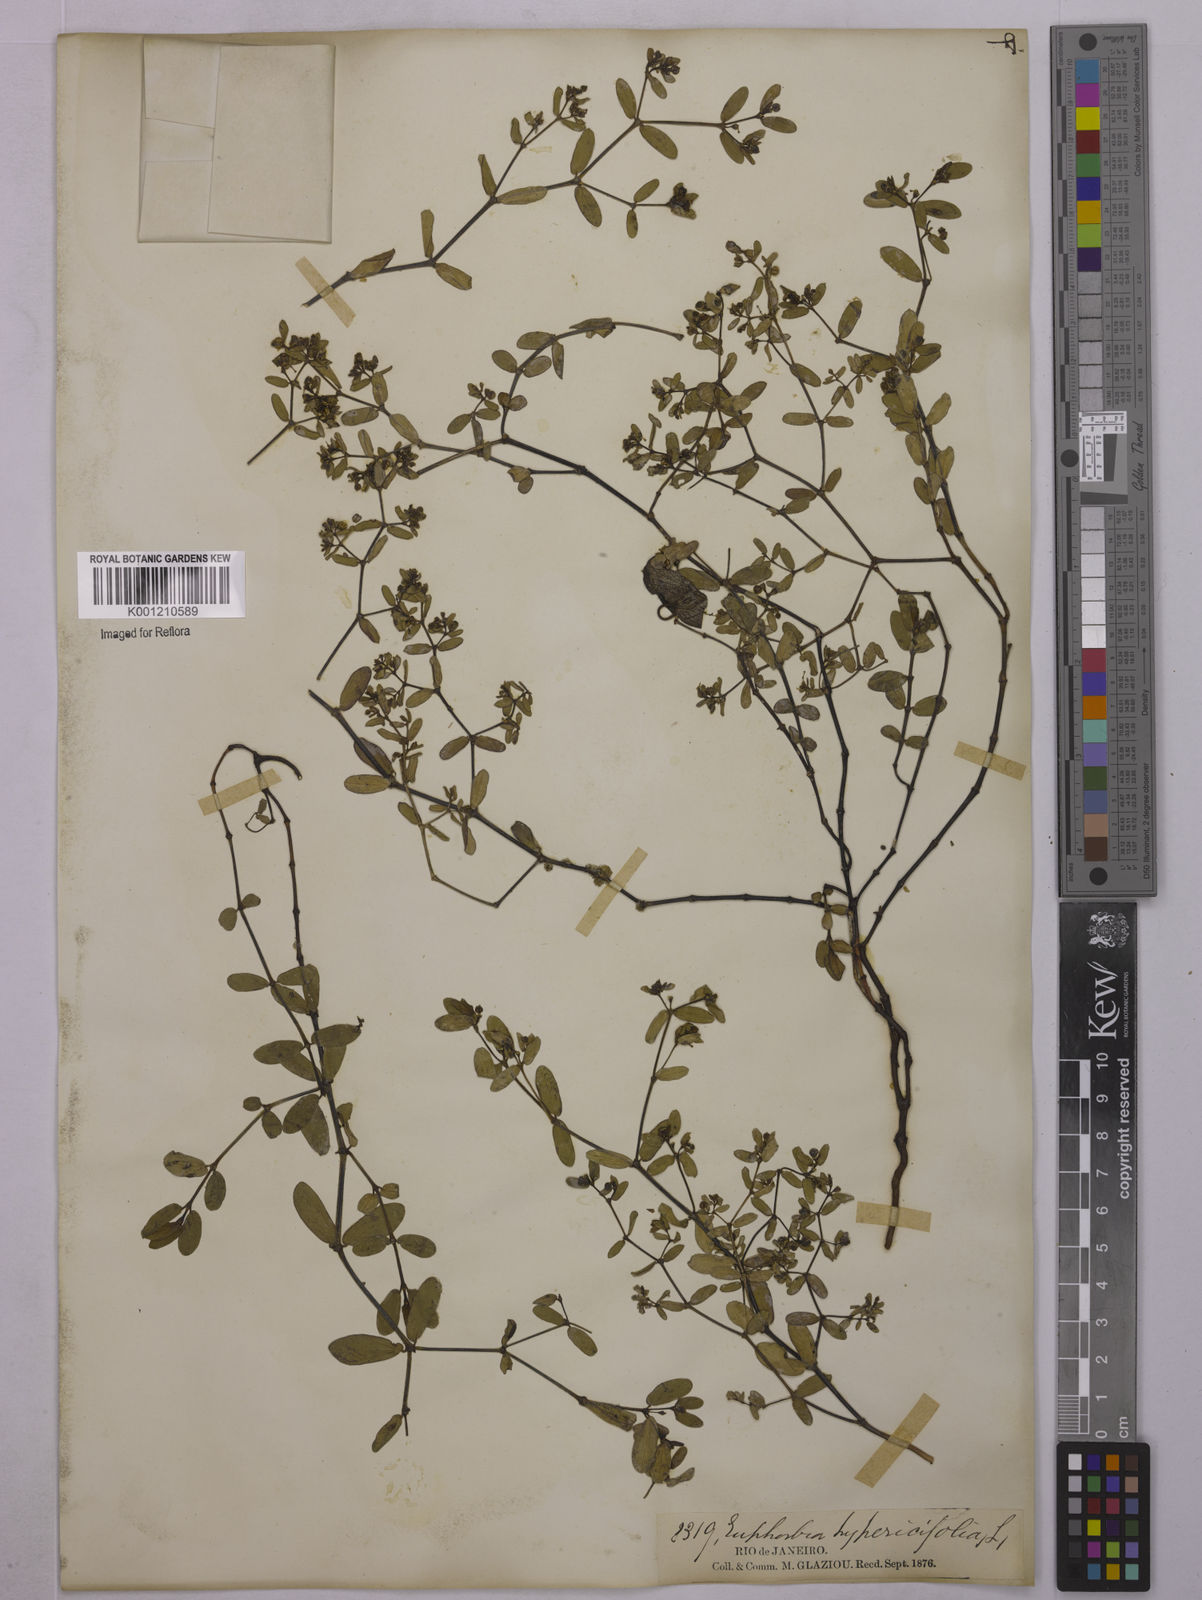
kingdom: Plantae
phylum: Tracheophyta
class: Magnoliopsida
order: Malpighiales
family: Euphorbiaceae
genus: Euphorbia
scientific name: Euphorbia hyssopifolia
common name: Hyssopleaf sandmat
